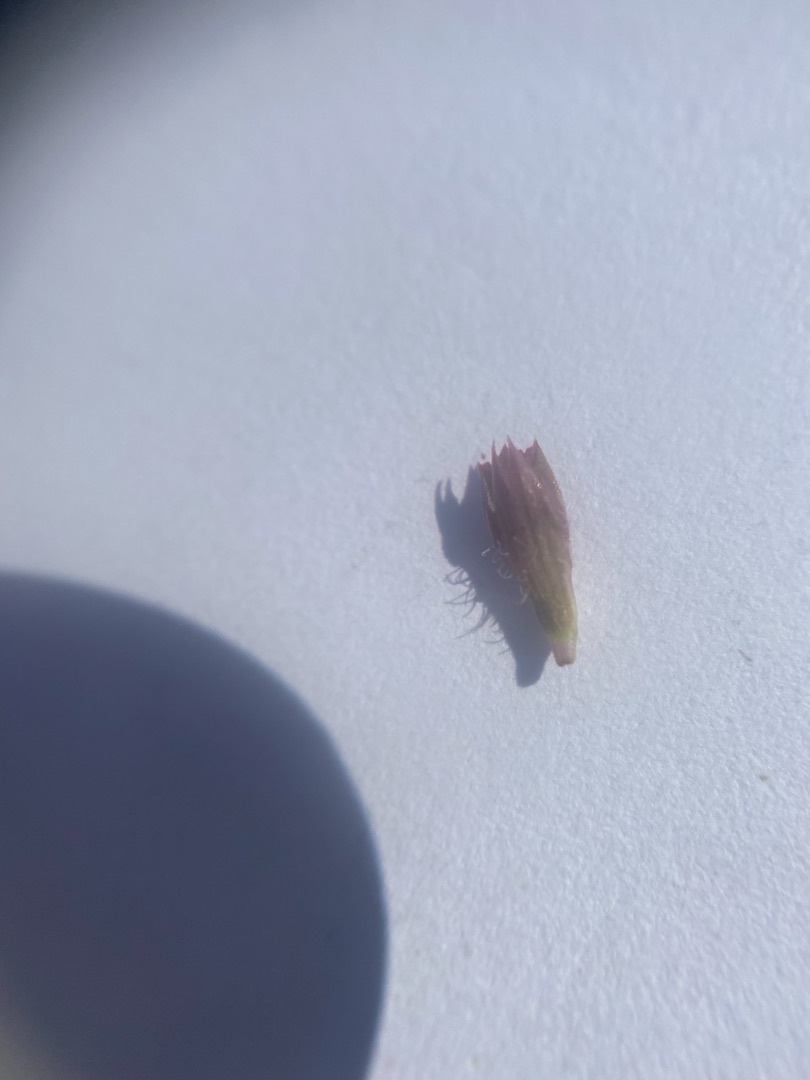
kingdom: Plantae
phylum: Tracheophyta
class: Magnoliopsida
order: Lamiales
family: Lamiaceae
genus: Prunella
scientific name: Prunella vulgaris
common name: Almindelig brunelle
